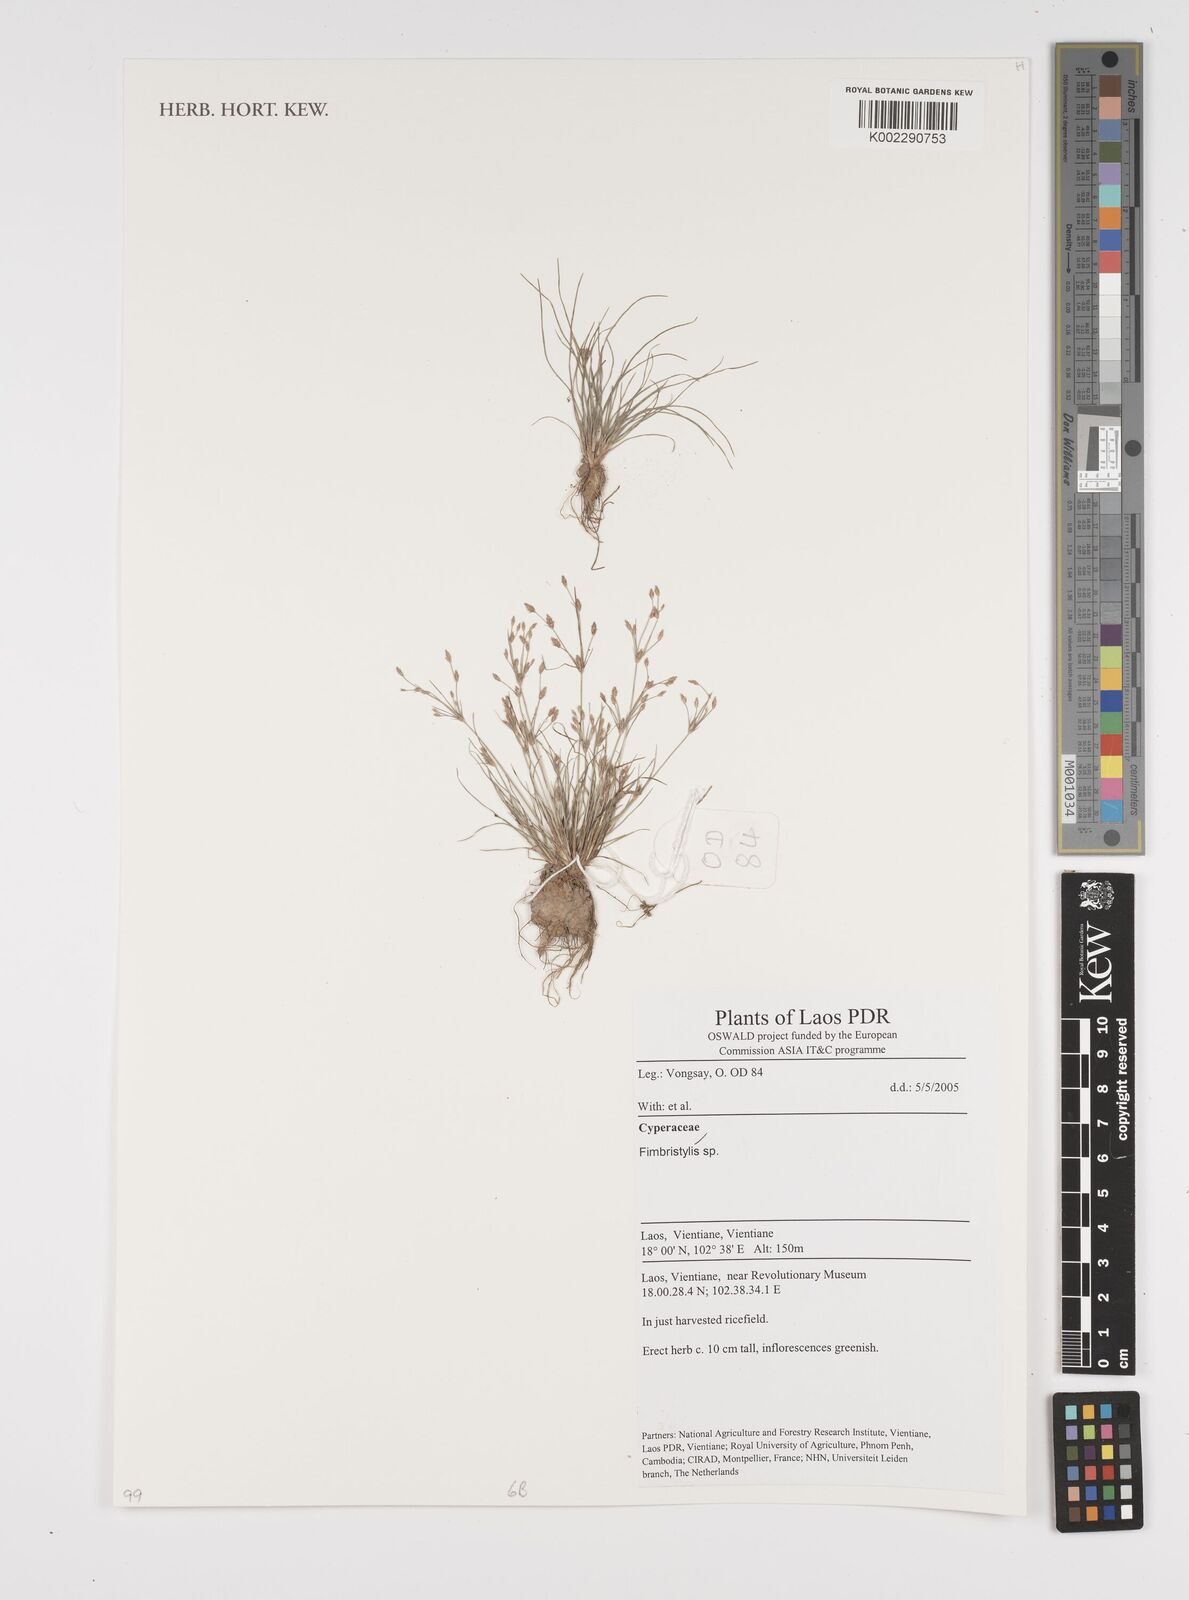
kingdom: Plantae
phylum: Tracheophyta
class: Liliopsida
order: Poales
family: Cyperaceae
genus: Fimbristylis
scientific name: Fimbristylis
